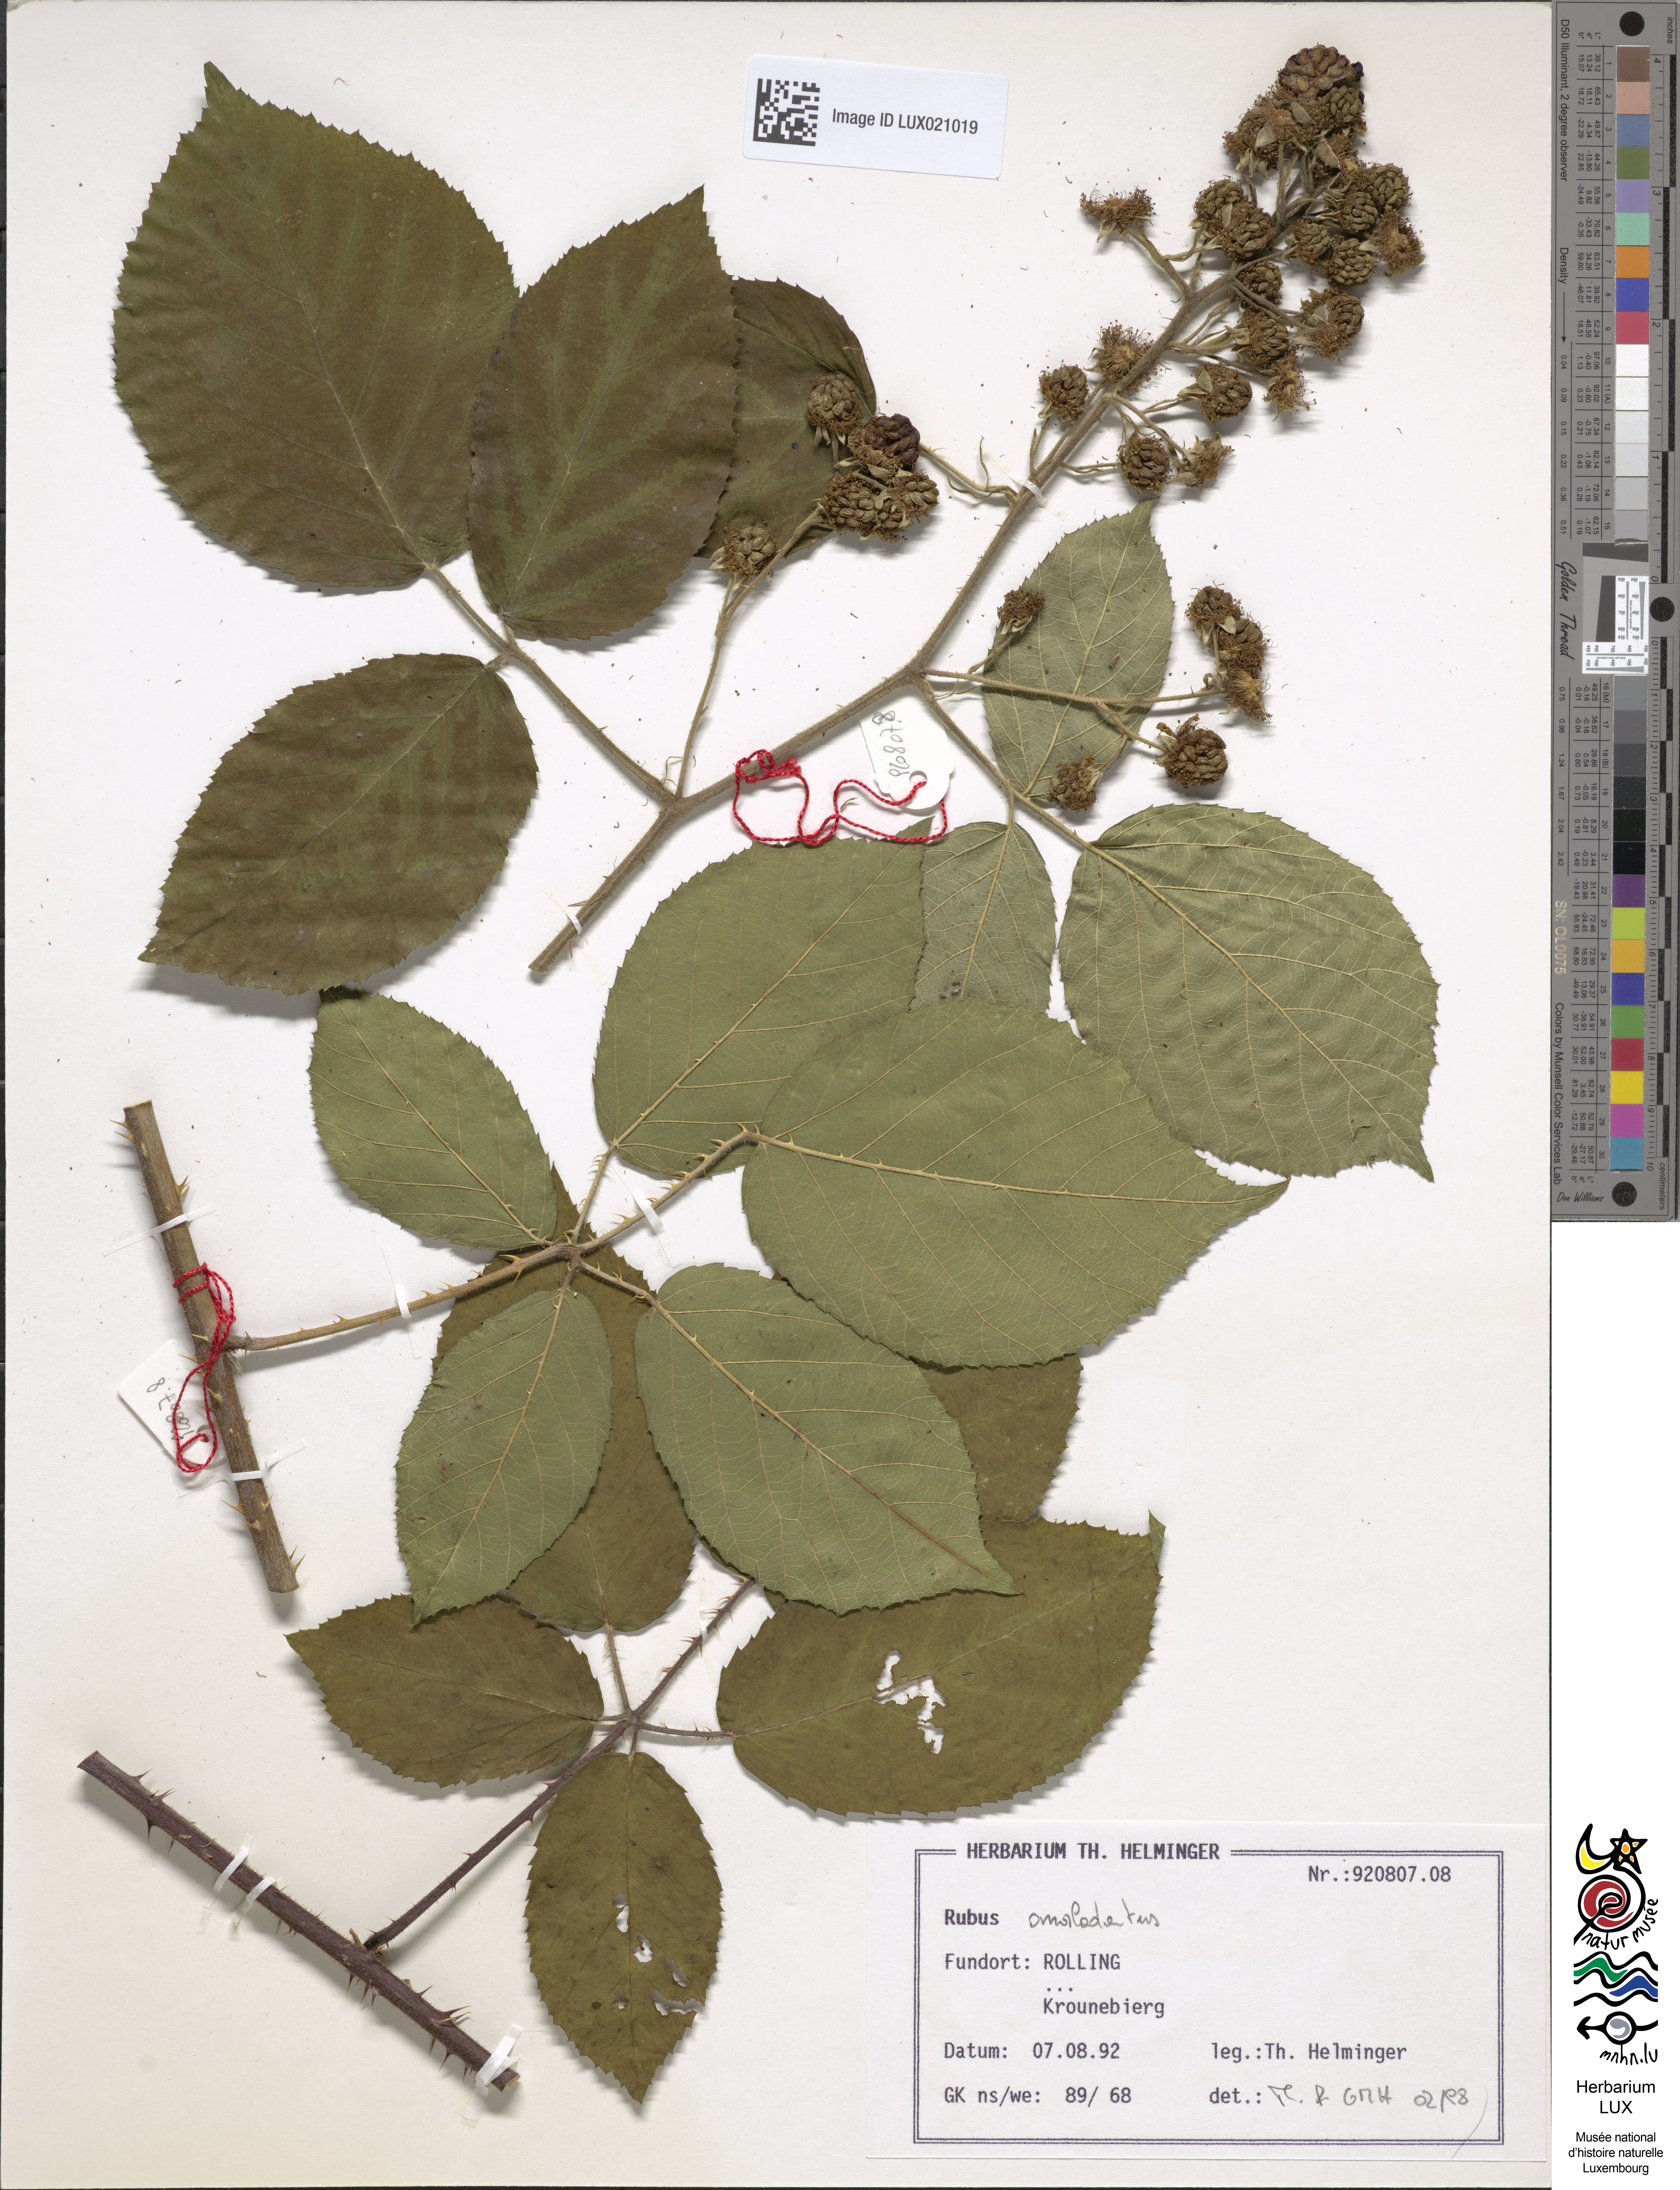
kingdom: Plantae
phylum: Tracheophyta
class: Magnoliopsida
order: Rosales
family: Rosaceae
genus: Rubus
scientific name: Rubus omalodontos
